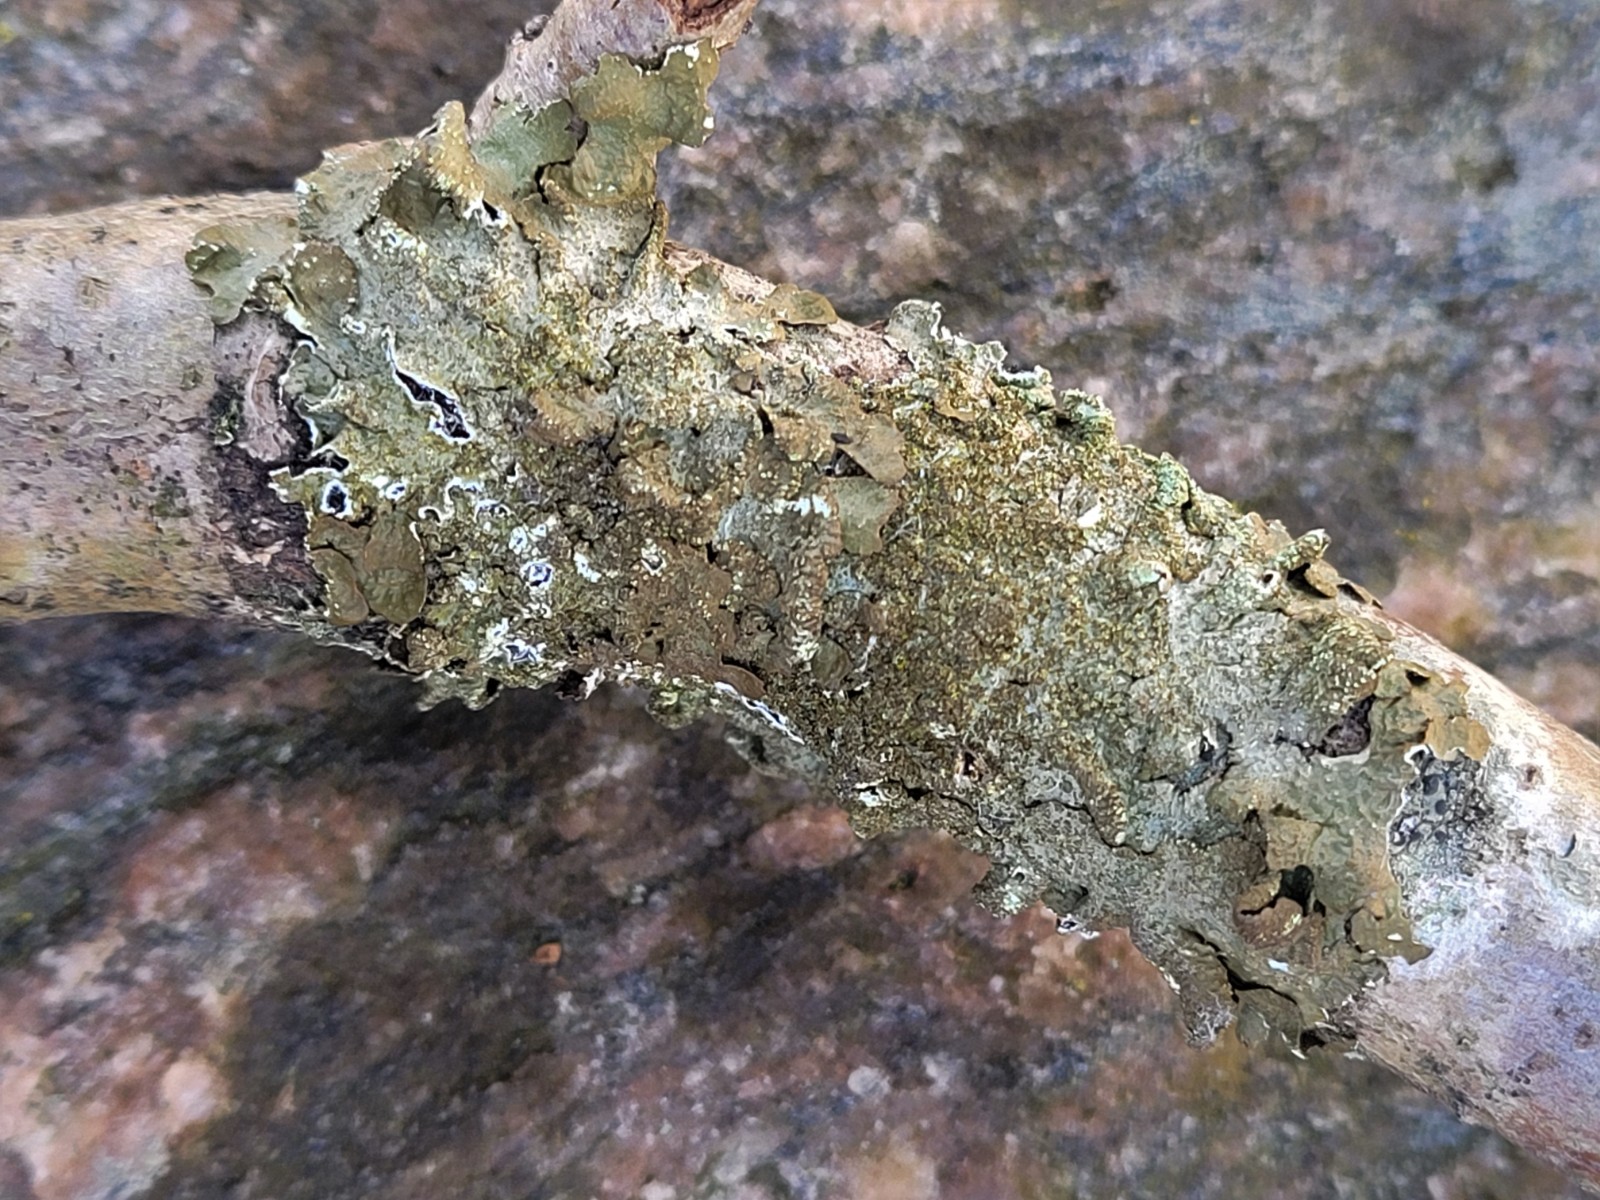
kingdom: Fungi
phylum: Ascomycota
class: Lecanoromycetes
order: Lecanorales
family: Parmeliaceae
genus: Melanelixia
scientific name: Melanelixia subaurifera
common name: guldpudret skållav
